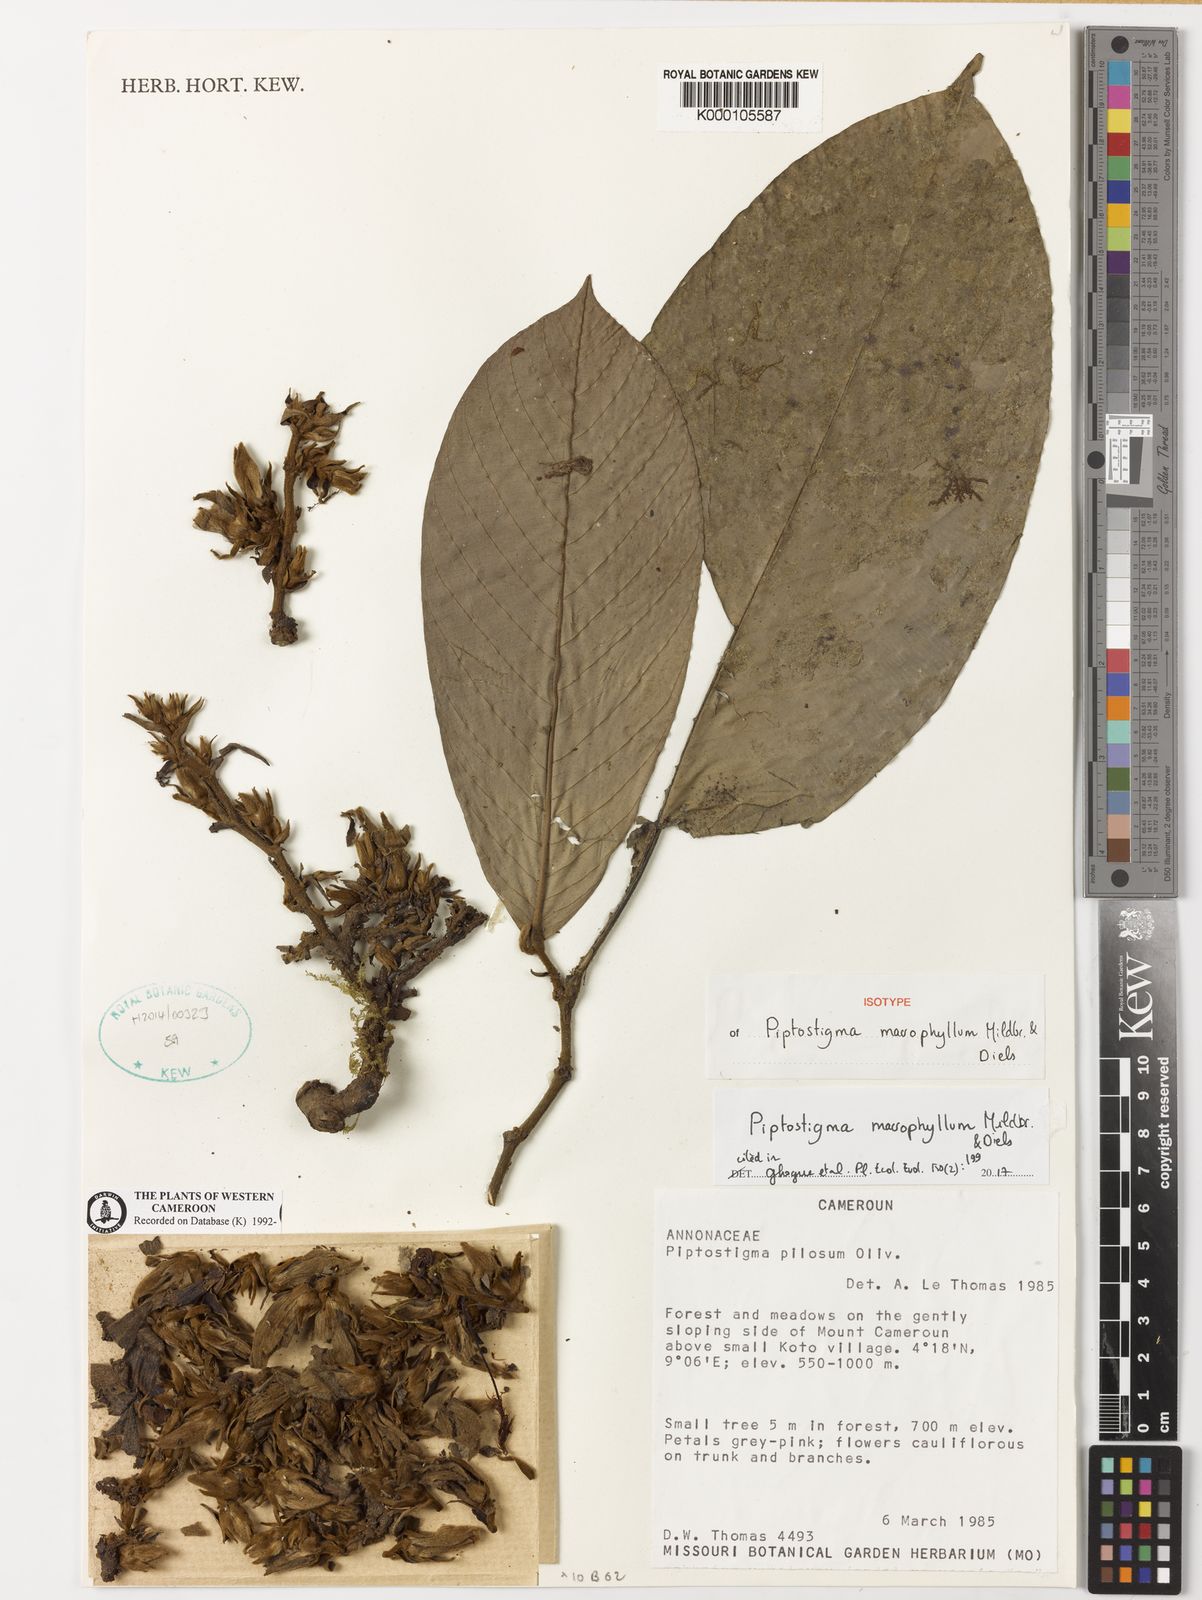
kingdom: Plantae
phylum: Tracheophyta
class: Magnoliopsida
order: Magnoliales
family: Annonaceae
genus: Piptostigma
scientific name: Piptostigma
